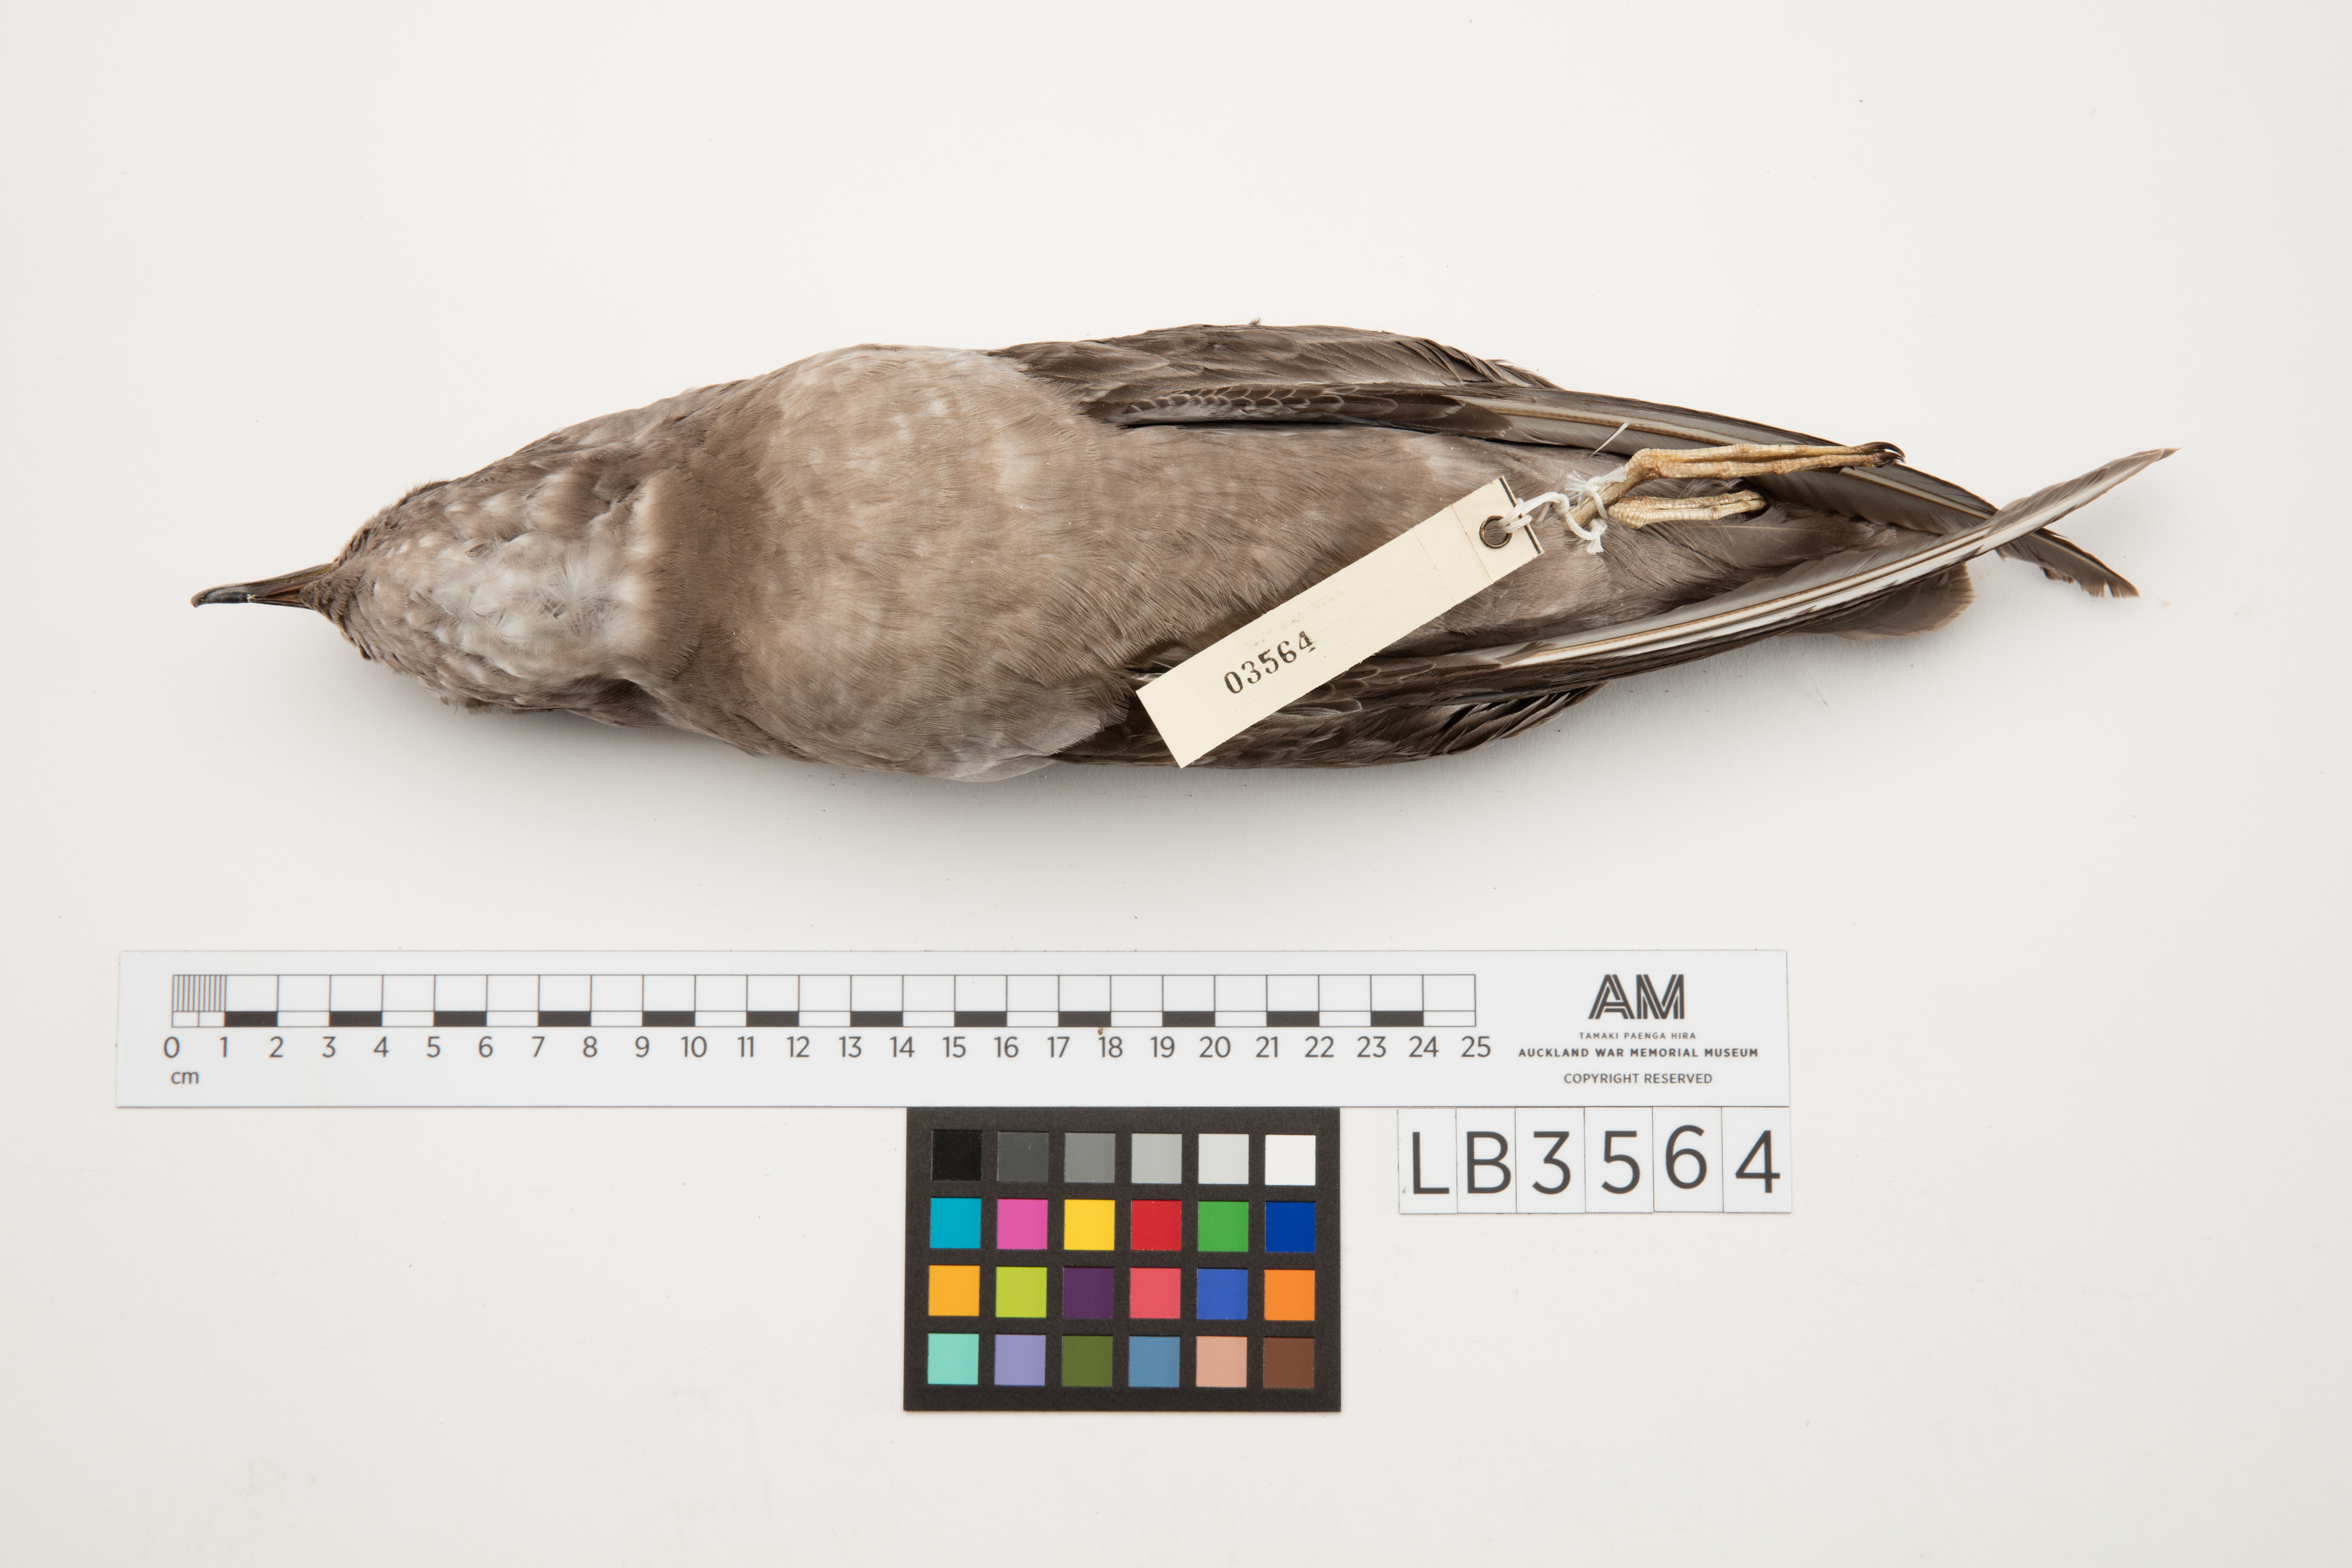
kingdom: Animalia
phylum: Chordata
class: Aves
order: Procellariiformes
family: Procellariidae
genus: Aphrodroma
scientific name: Aphrodroma brevirostris
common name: Kerguelen petrel
